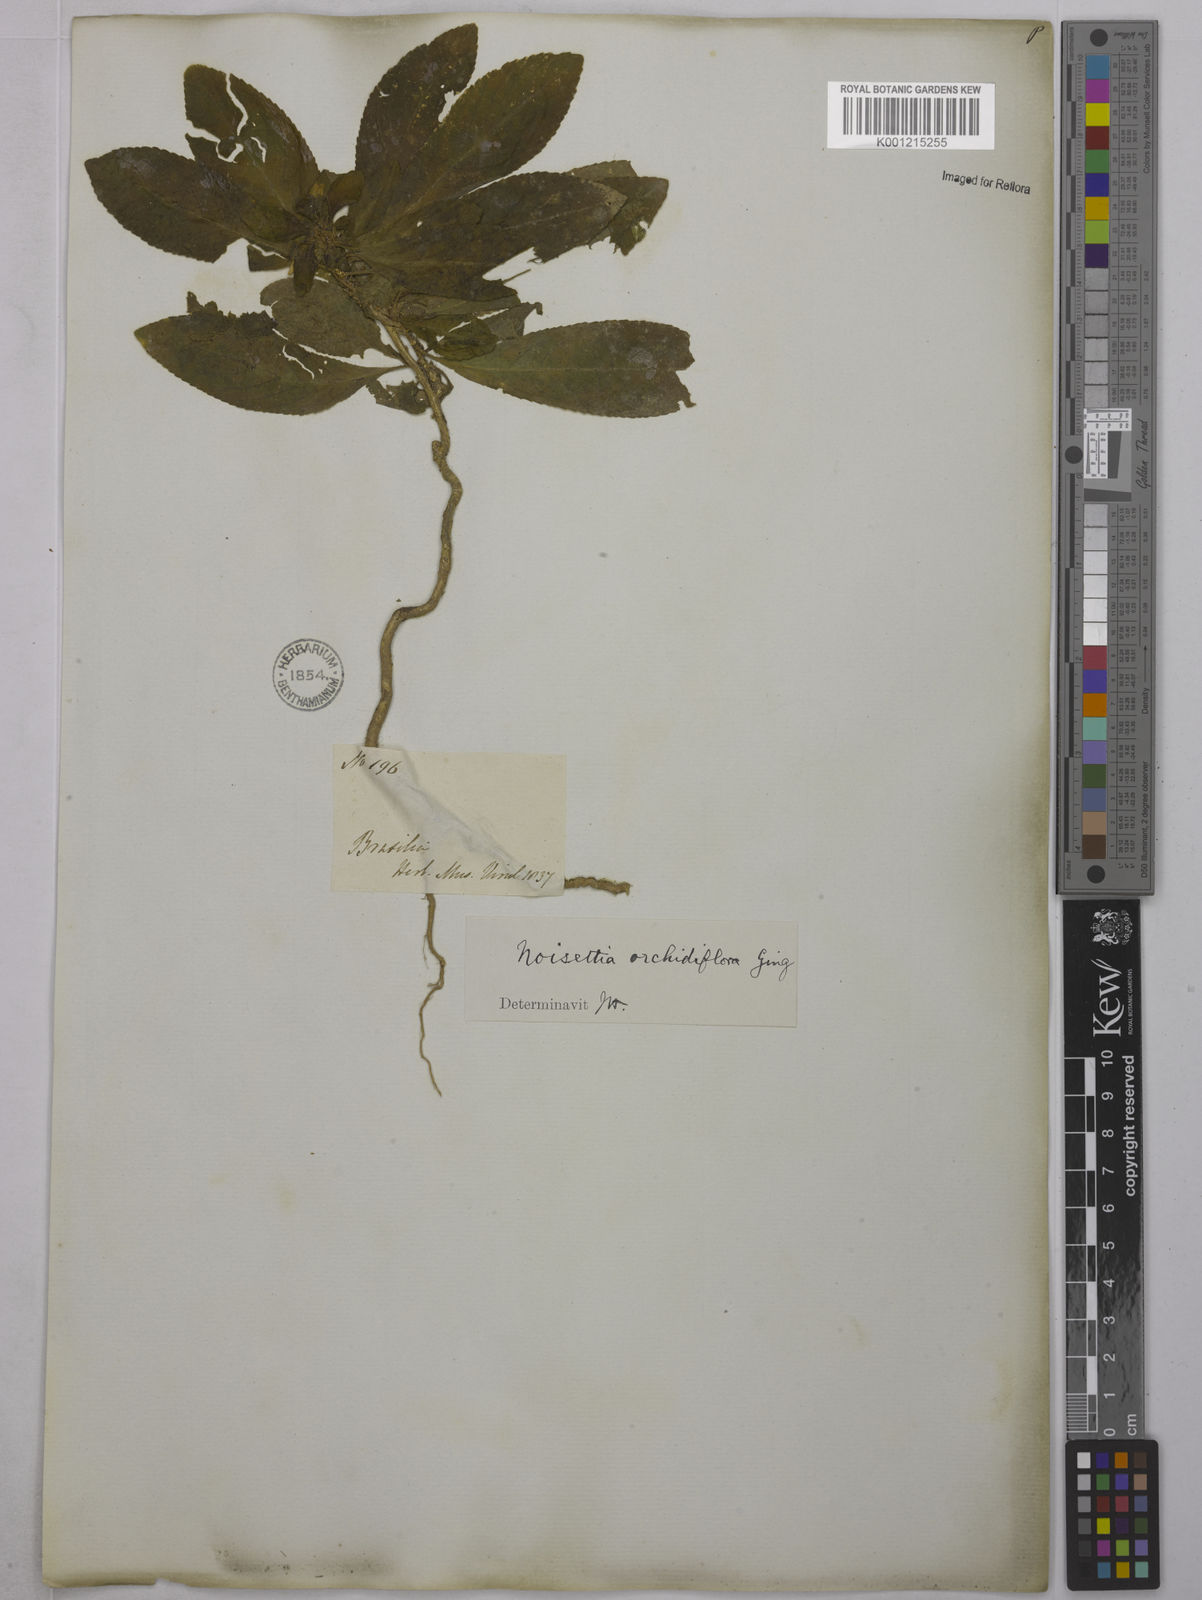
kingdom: Plantae
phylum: Tracheophyta
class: Magnoliopsida
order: Malpighiales
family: Violaceae
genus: Noisettia
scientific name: Noisettia orchidiflora
